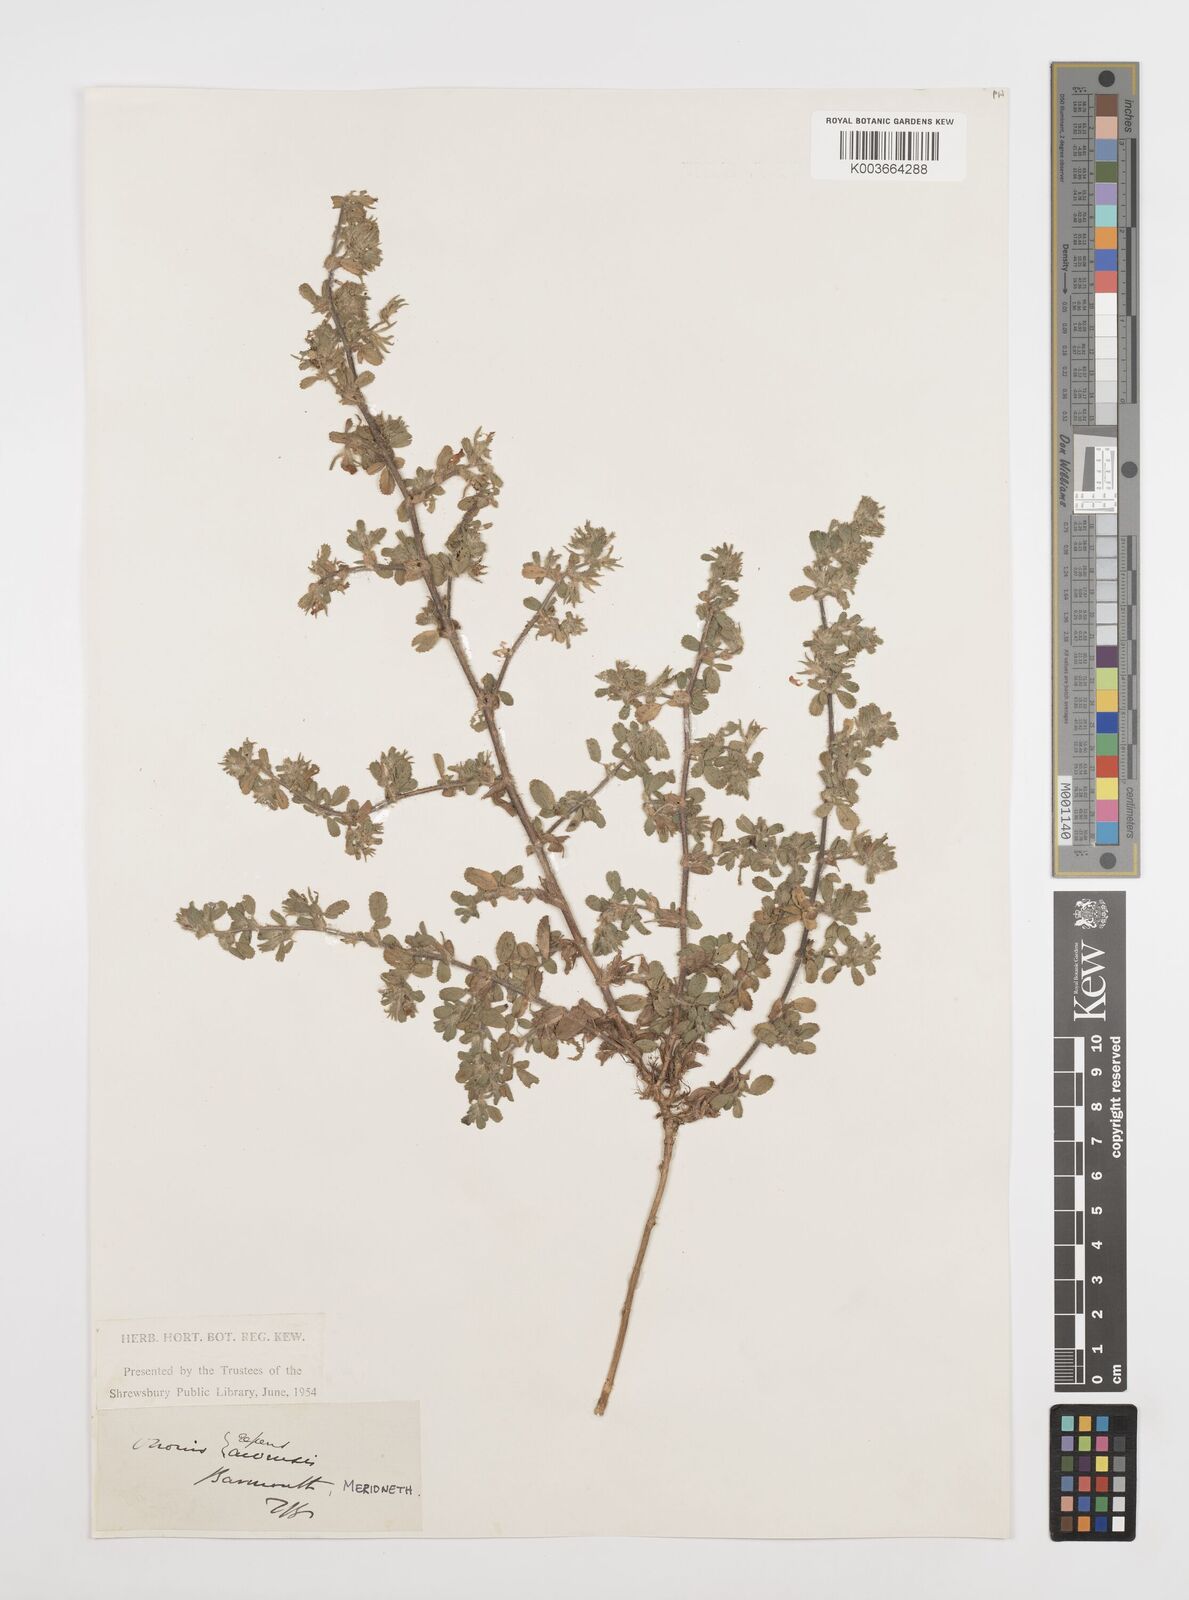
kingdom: Plantae
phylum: Tracheophyta
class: Magnoliopsida
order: Fabales
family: Fabaceae
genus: Ononis
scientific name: Ononis spinosa
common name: Spiny restharrow
